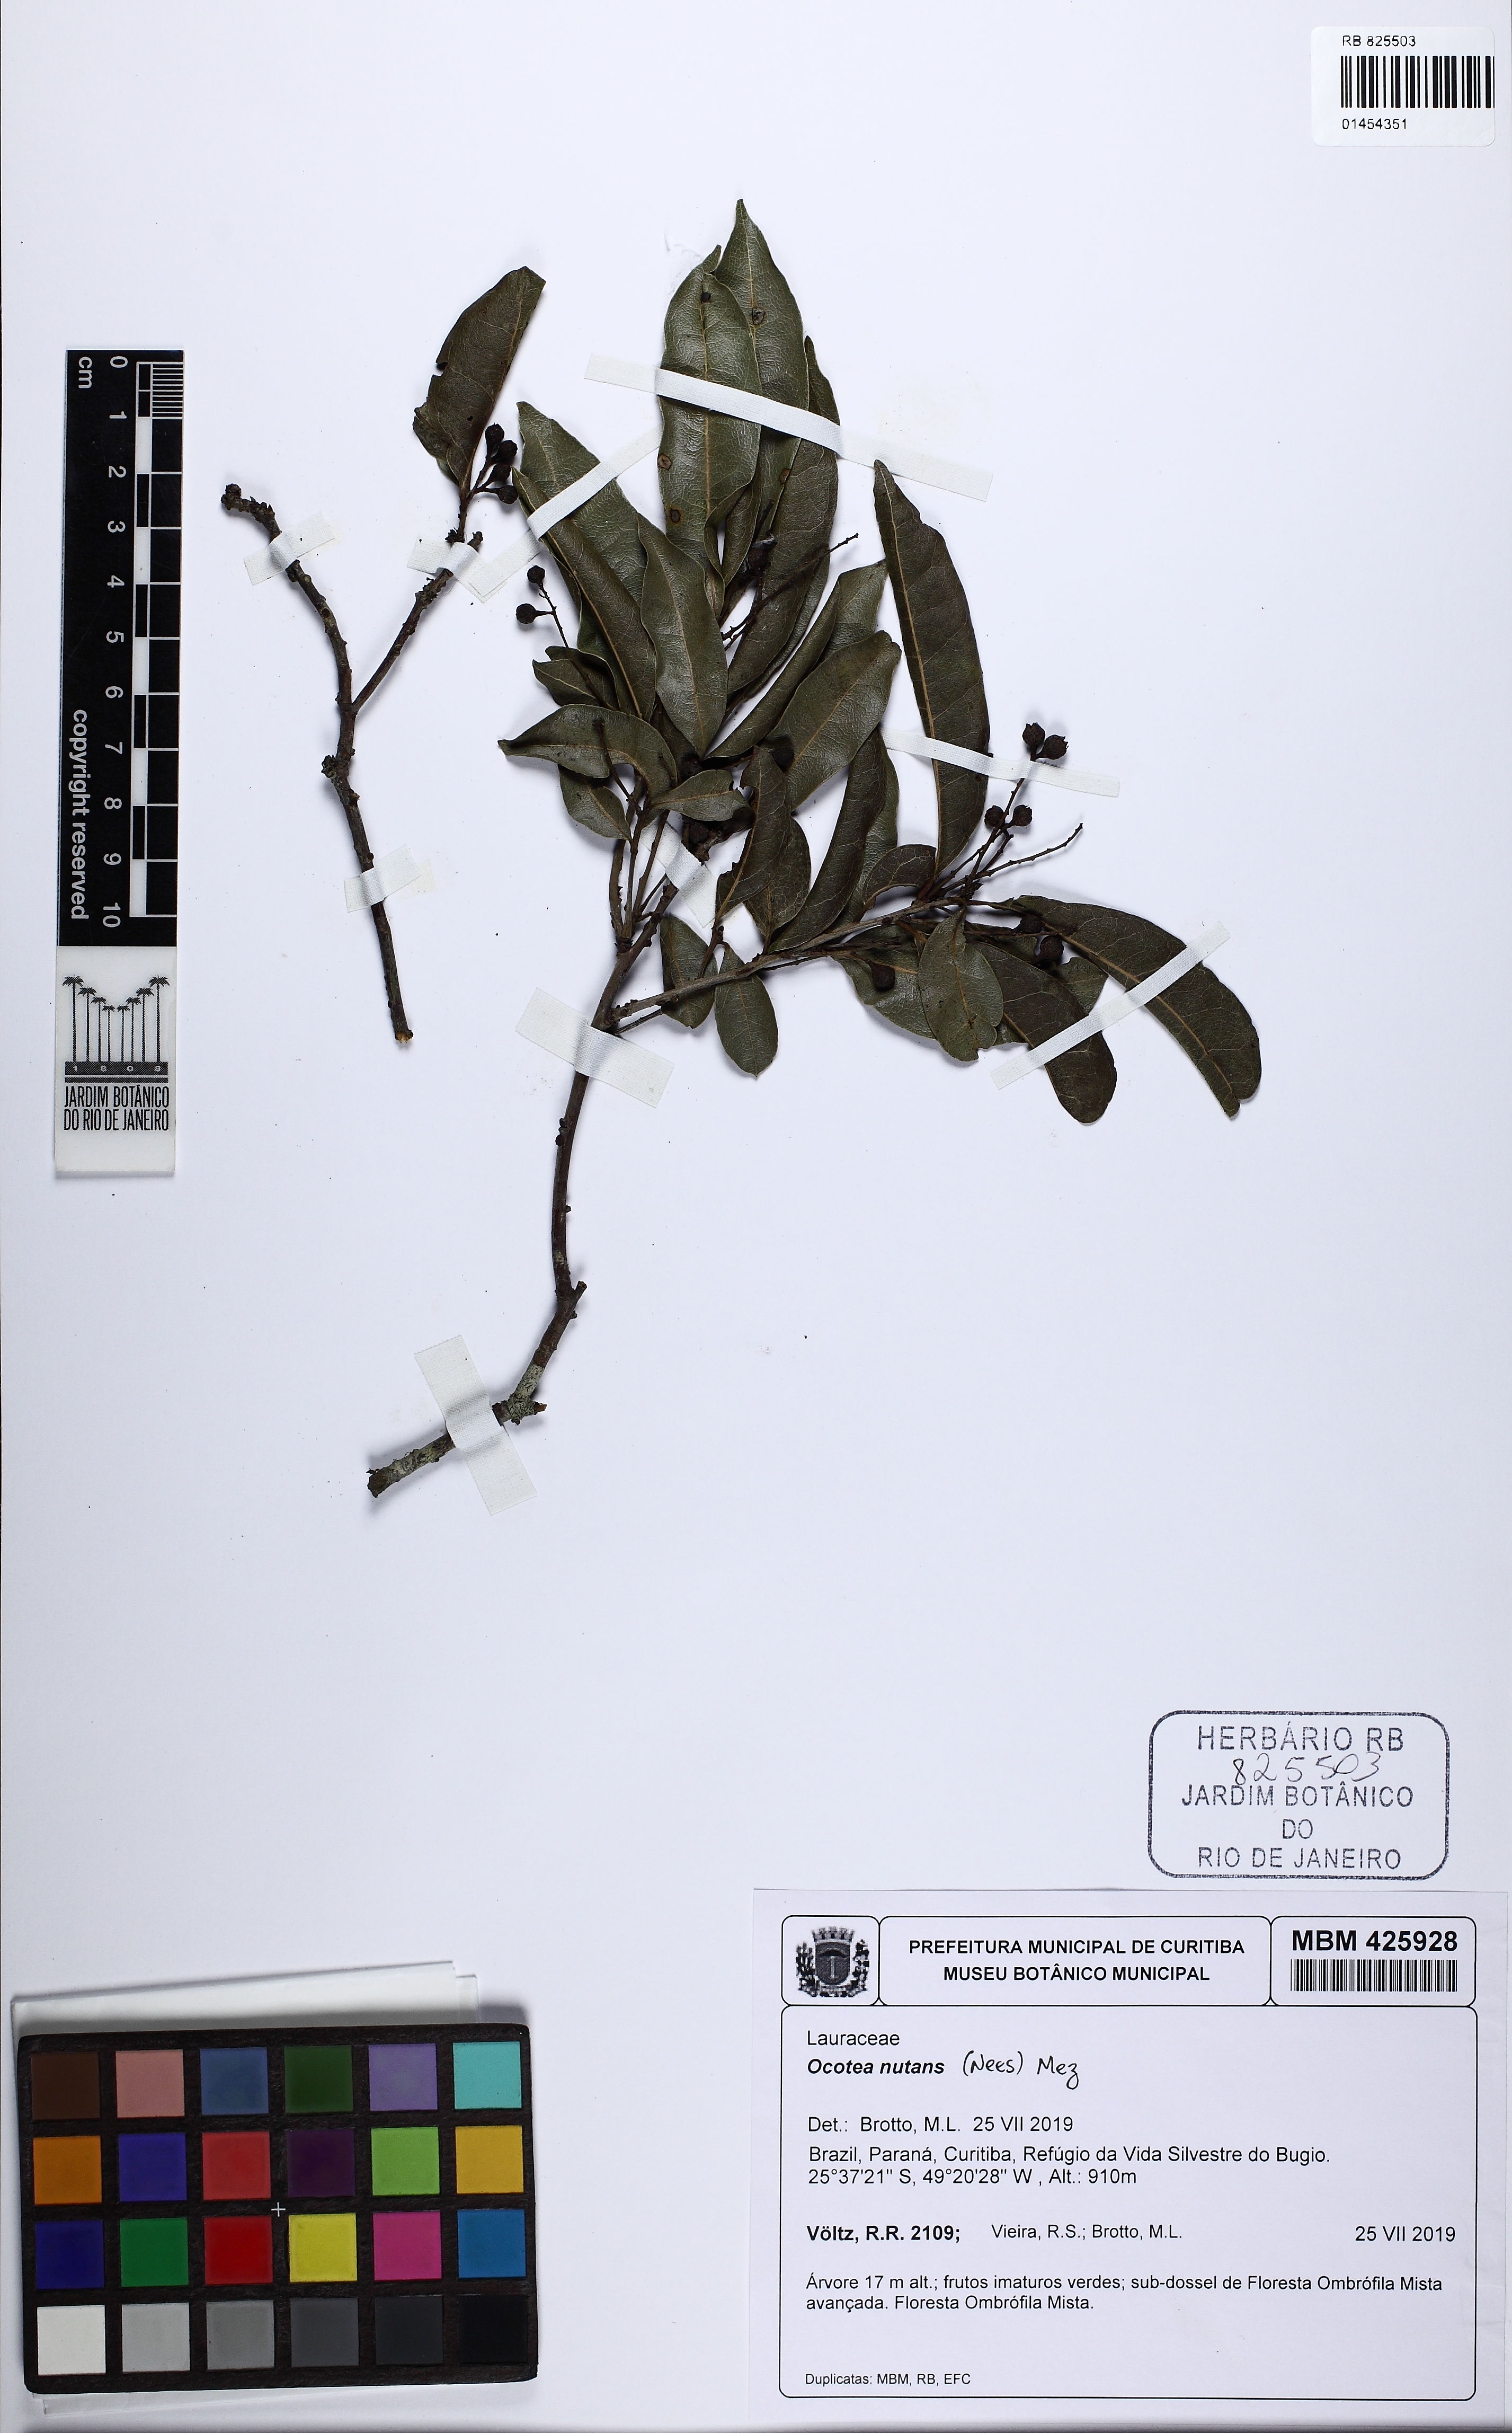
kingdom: Plantae
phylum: Tracheophyta
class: Magnoliopsida
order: Laurales
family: Lauraceae
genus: Mespilodaphne
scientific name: Mespilodaphne nutans
